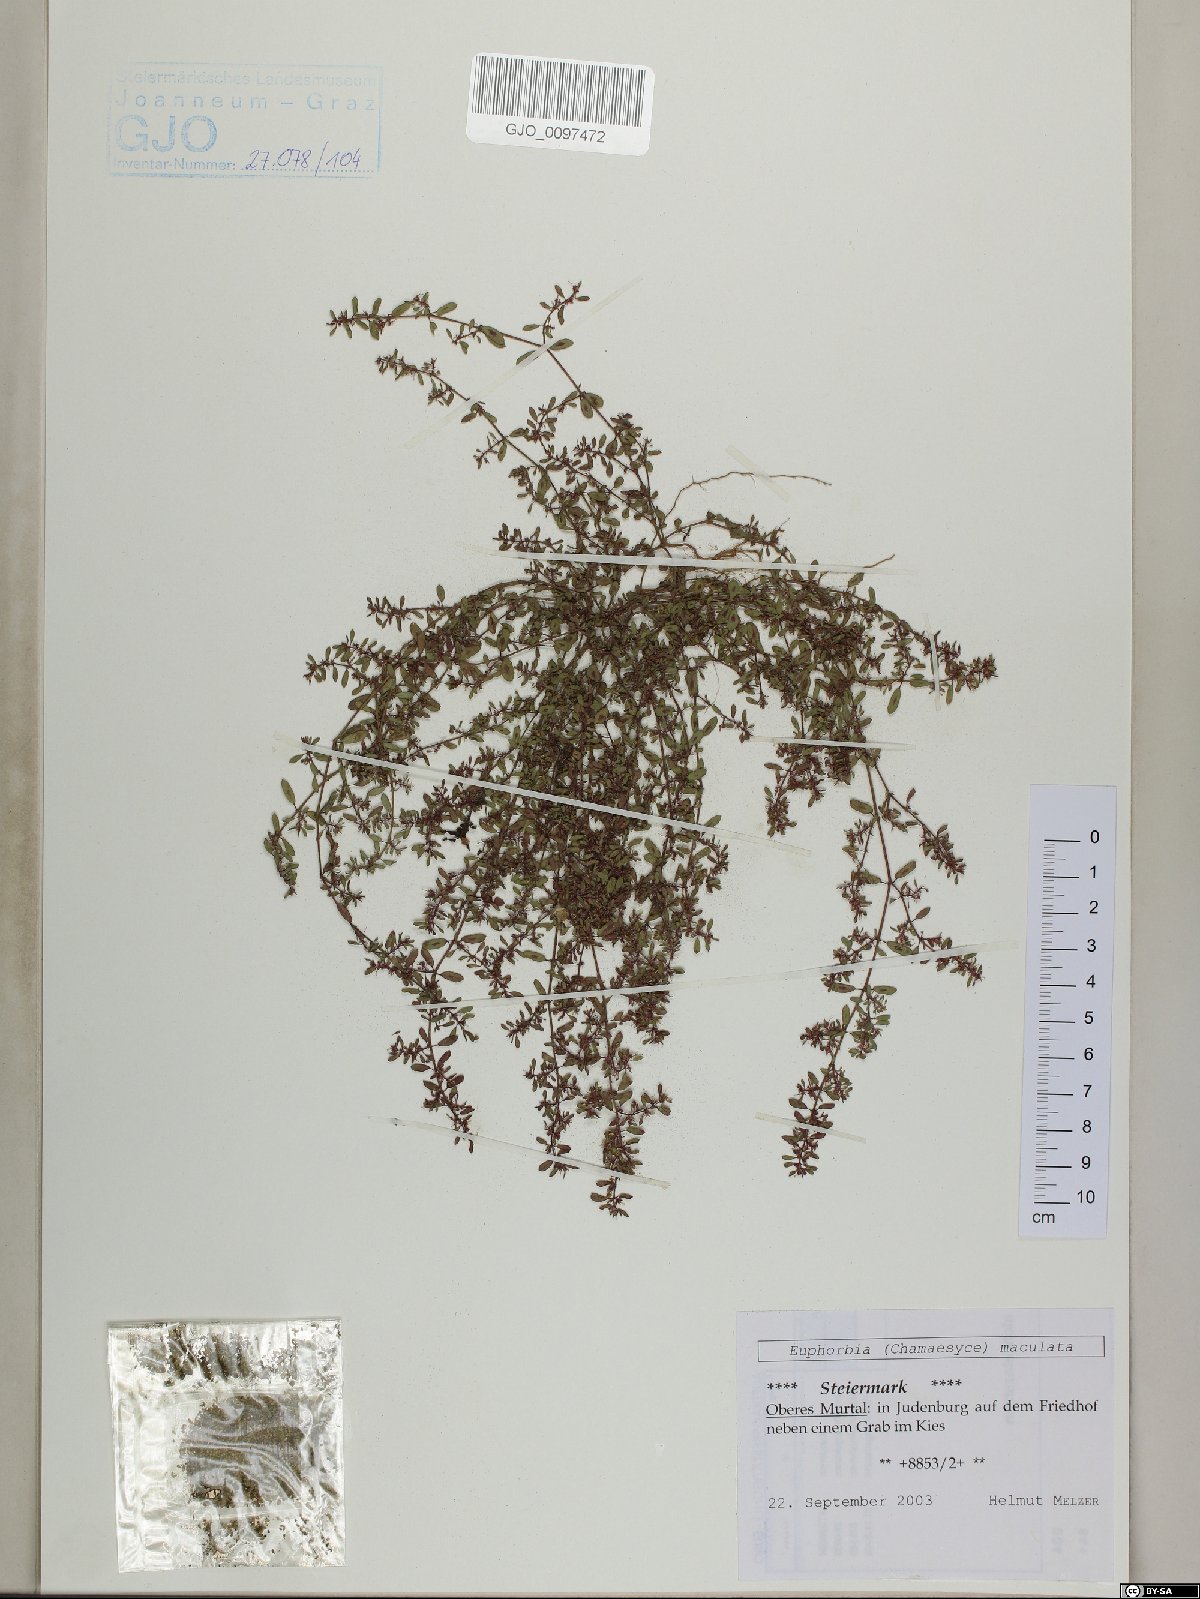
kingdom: Plantae
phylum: Tracheophyta
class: Magnoliopsida
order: Malpighiales
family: Euphorbiaceae
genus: Euphorbia
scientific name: Euphorbia maculata
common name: Spotted spurge
